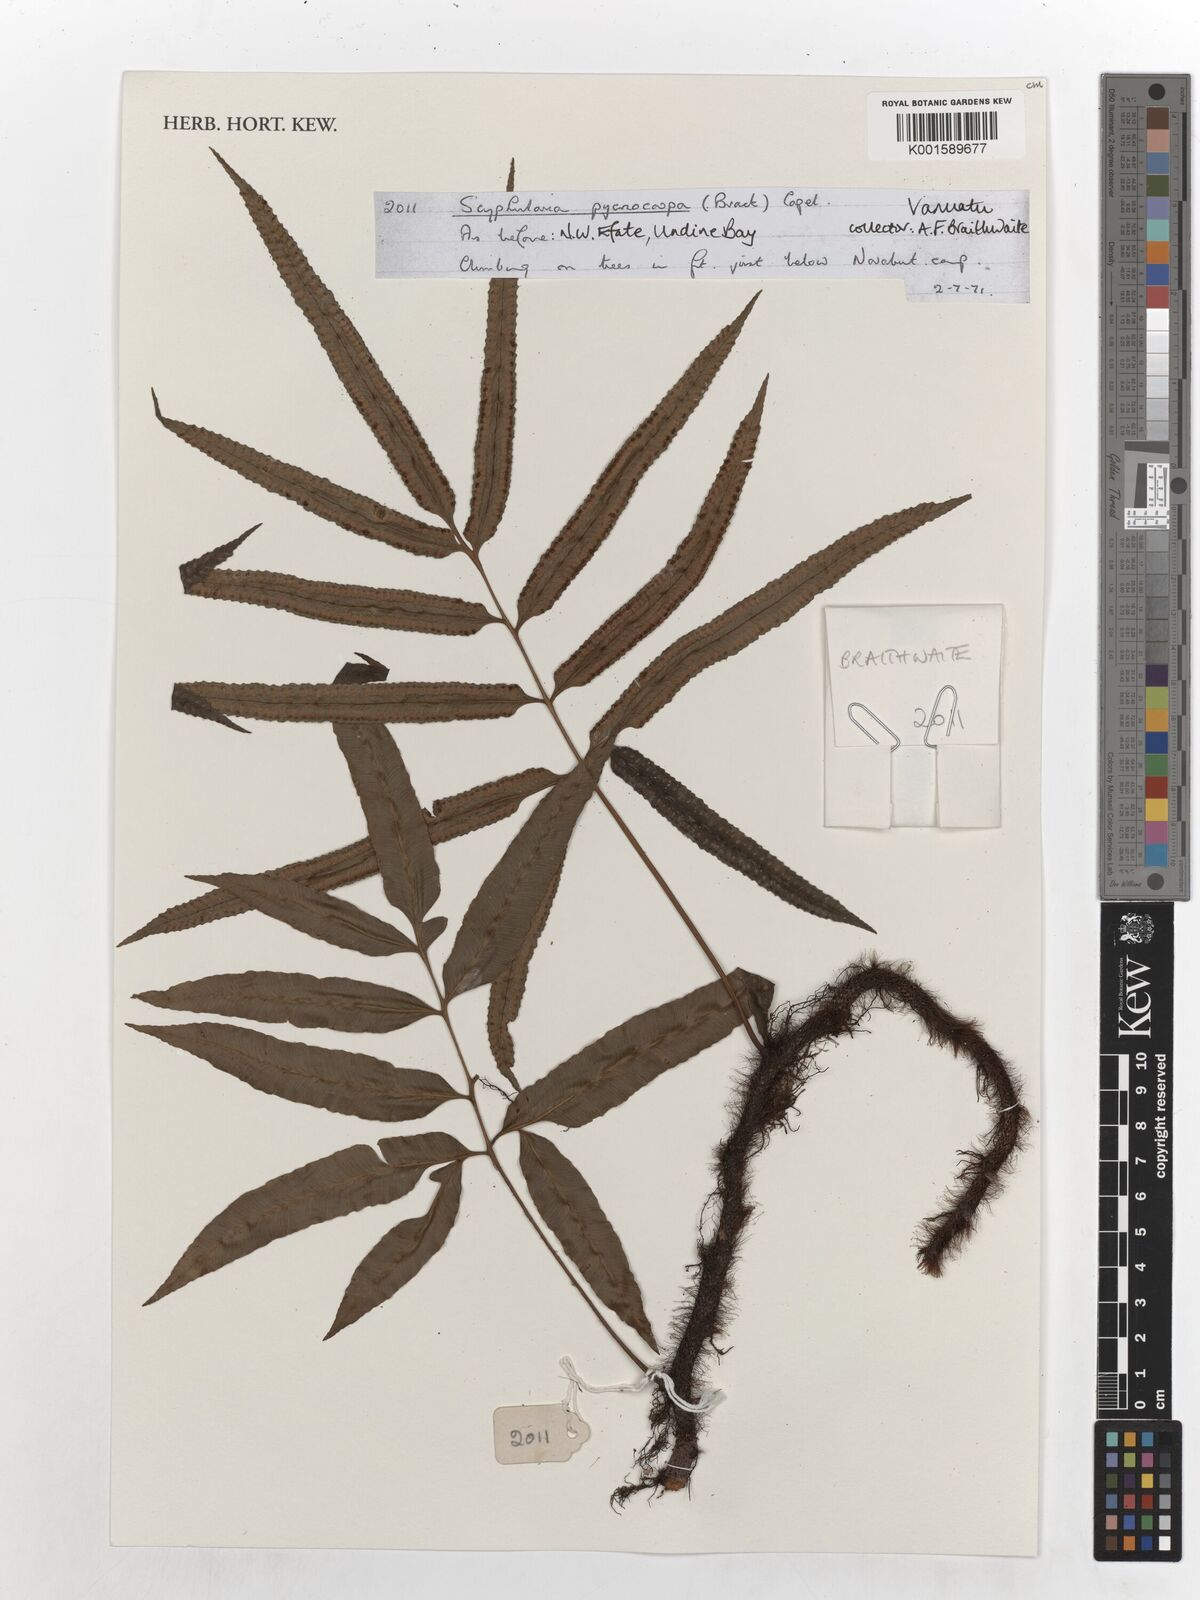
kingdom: Plantae
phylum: Tracheophyta
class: Polypodiopsida
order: Polypodiales
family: Davalliaceae
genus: Davallia
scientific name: Davallia pentaphylla
